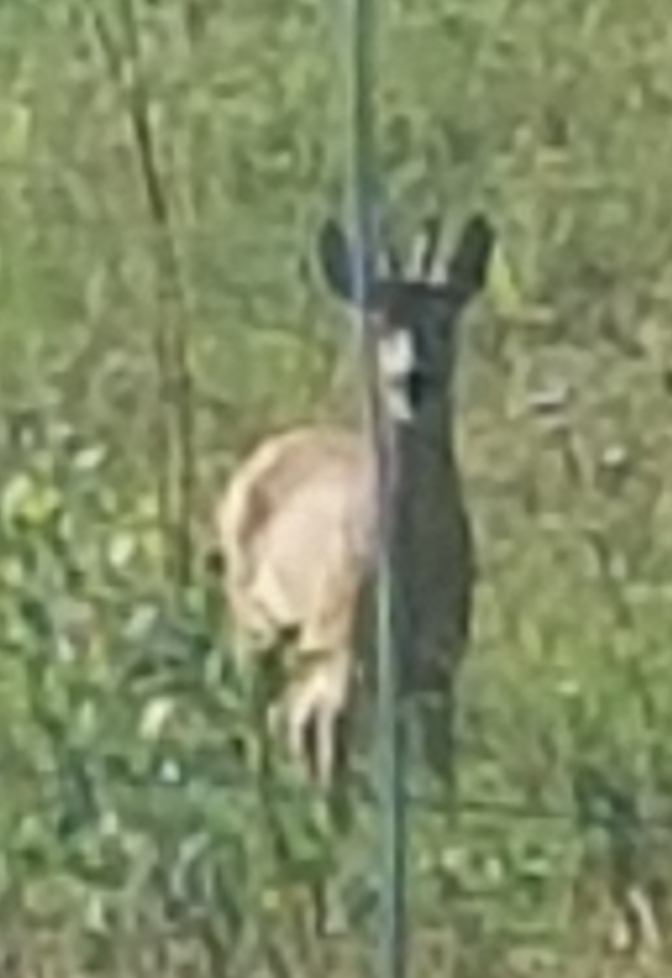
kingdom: Animalia
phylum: Chordata
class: Mammalia
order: Artiodactyla
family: Cervidae
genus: Capreolus
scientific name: Capreolus capreolus
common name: Rådyr
